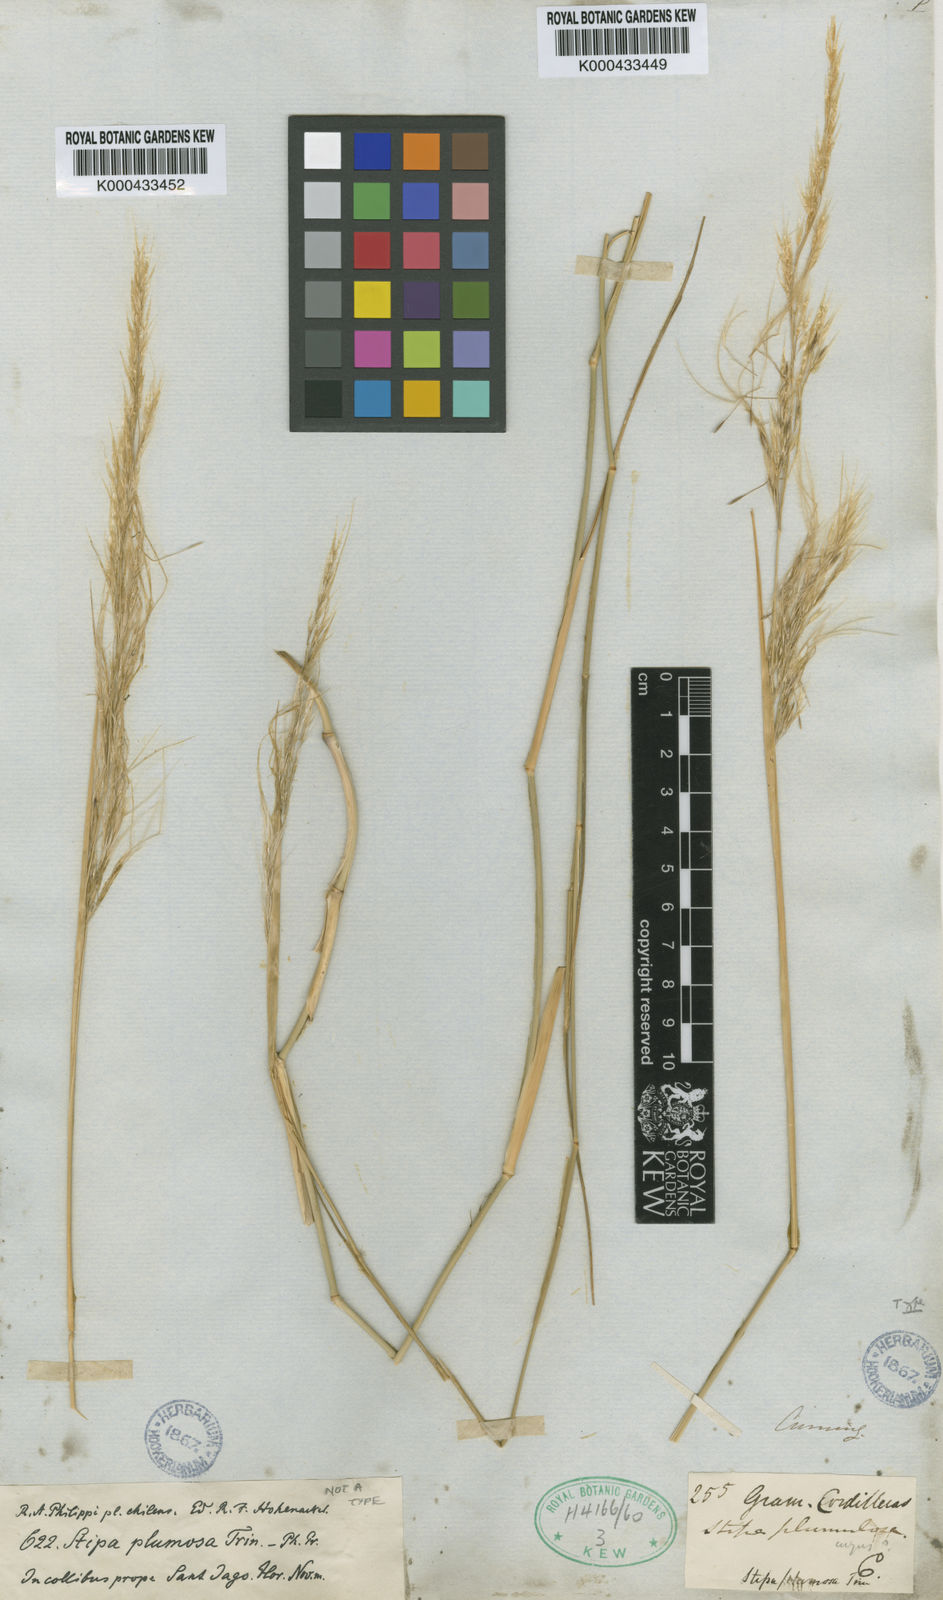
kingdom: Plantae
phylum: Tracheophyta
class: Liliopsida
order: Poales
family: Poaceae
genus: Stipa
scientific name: Stipa plumosa
